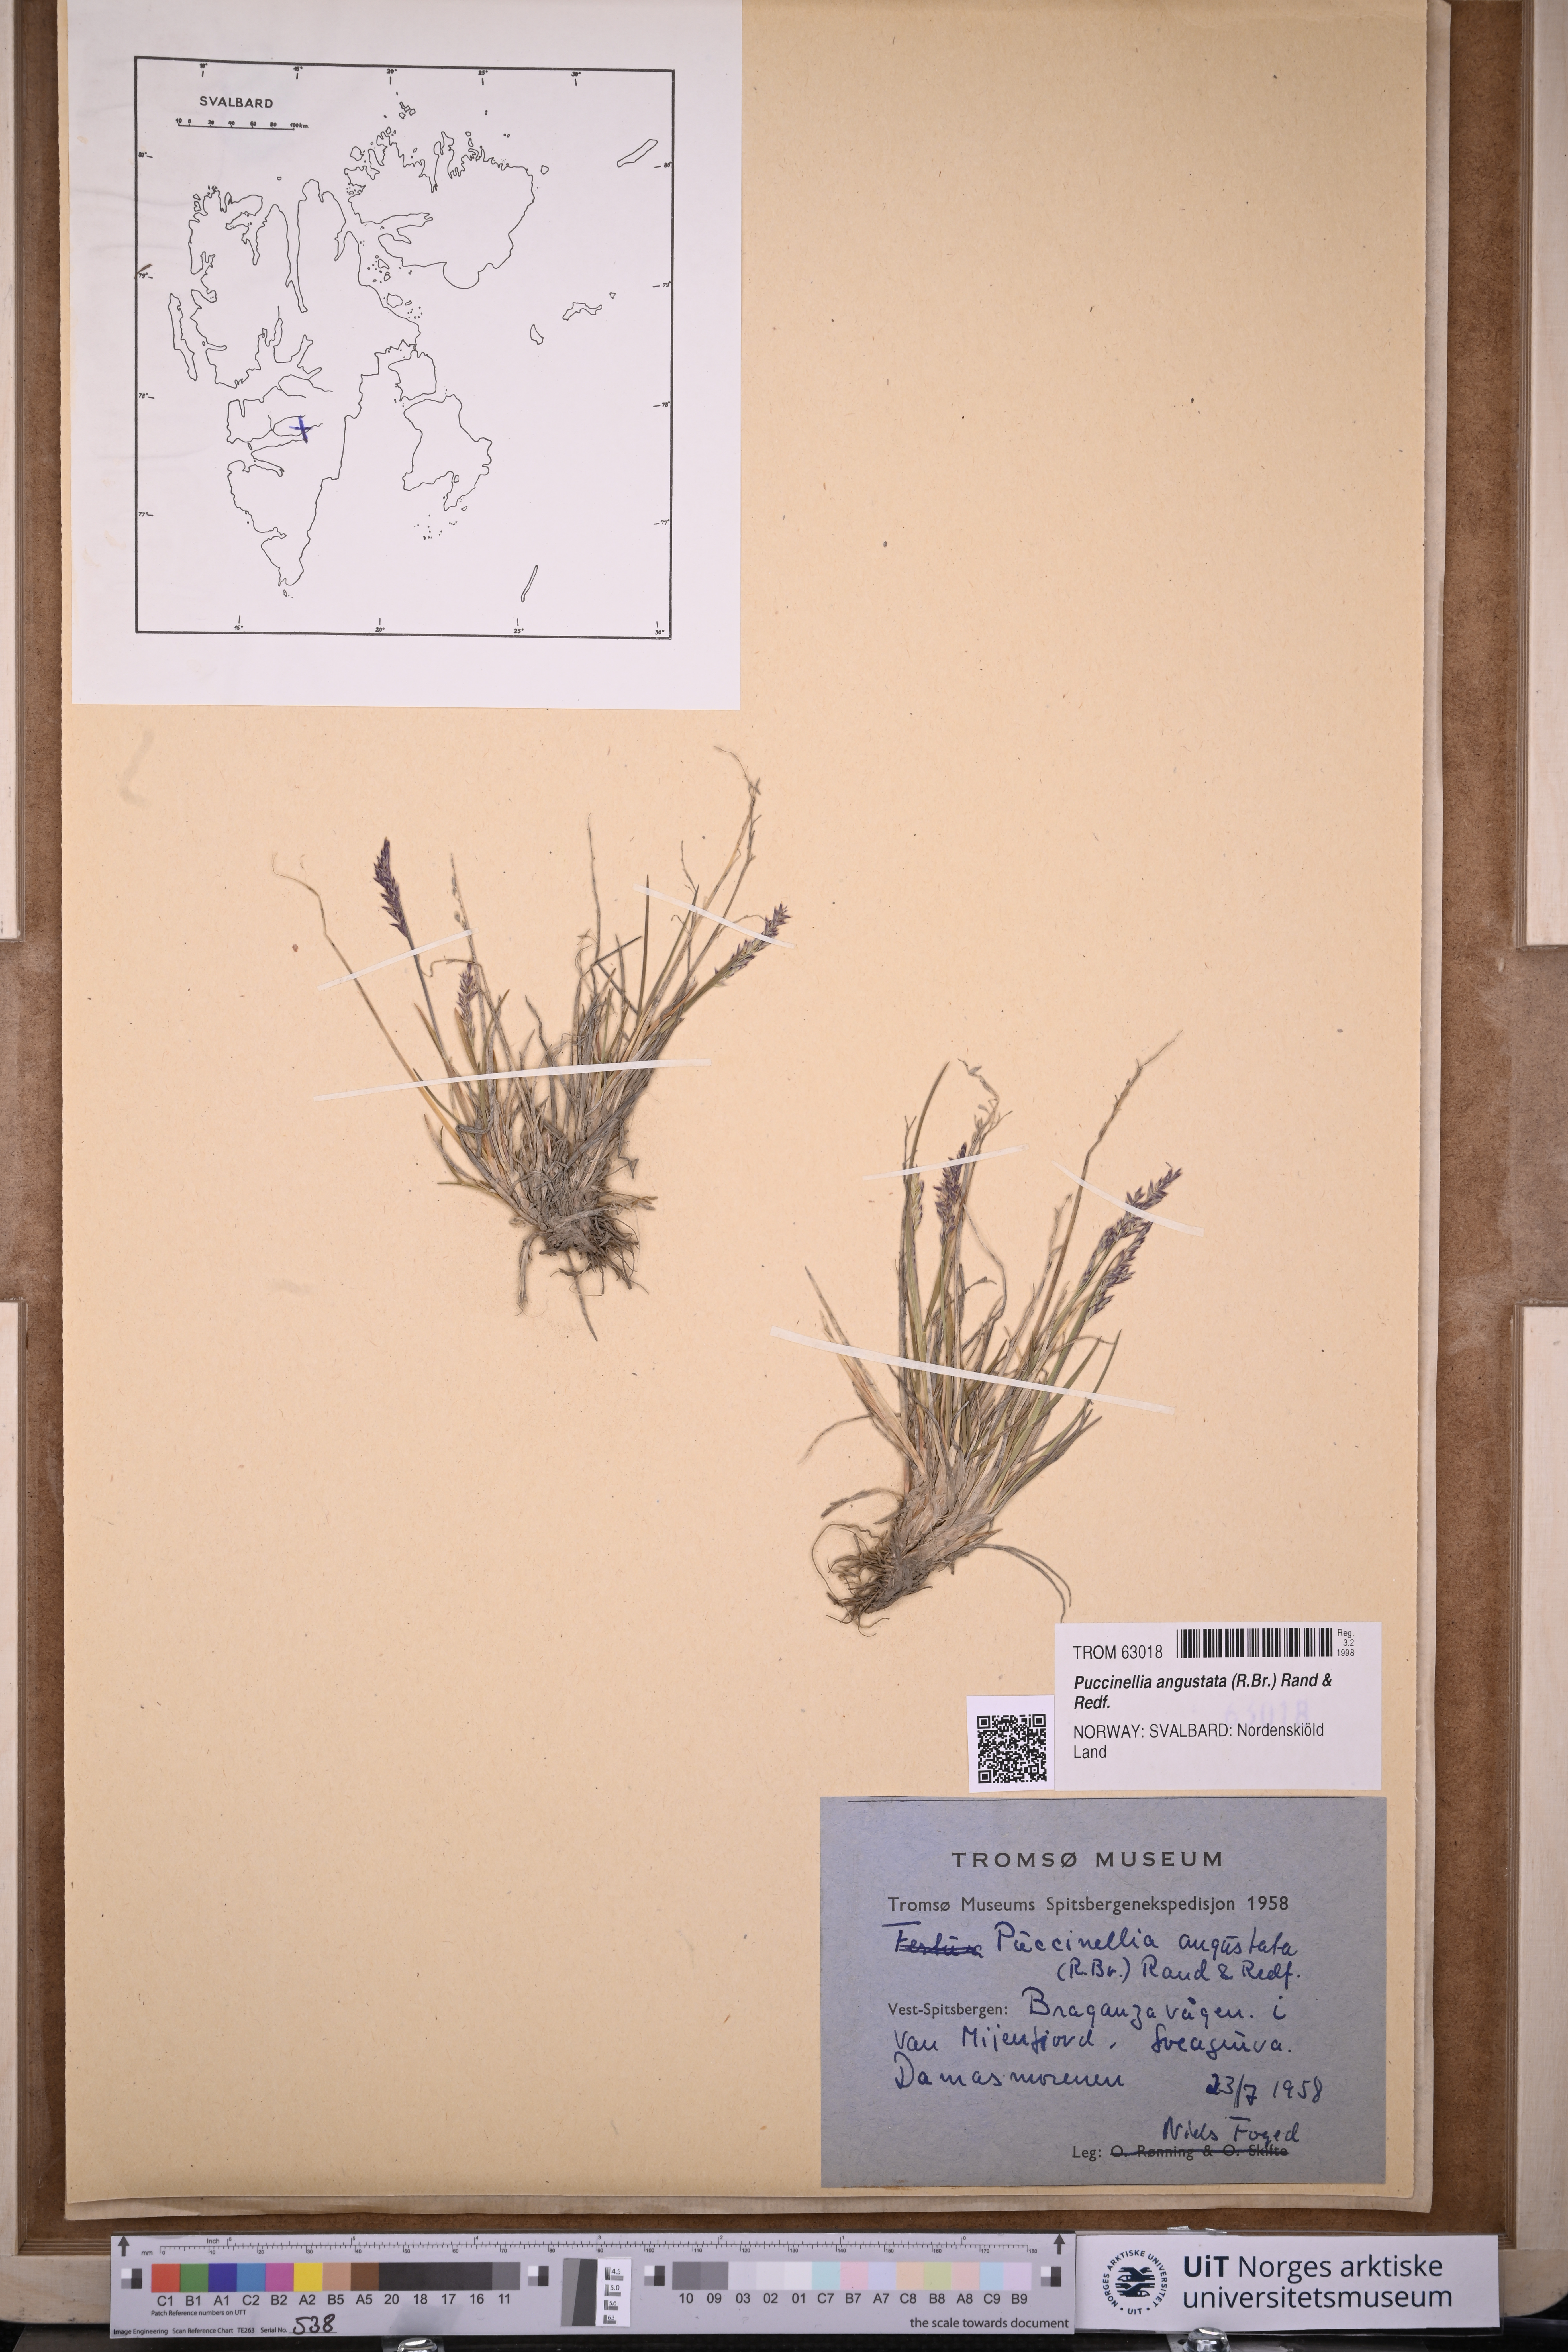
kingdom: Plantae
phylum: Tracheophyta
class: Liliopsida
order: Poales
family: Poaceae
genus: Puccinellia
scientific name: Puccinellia angustata
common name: Narrow alkaligrass
